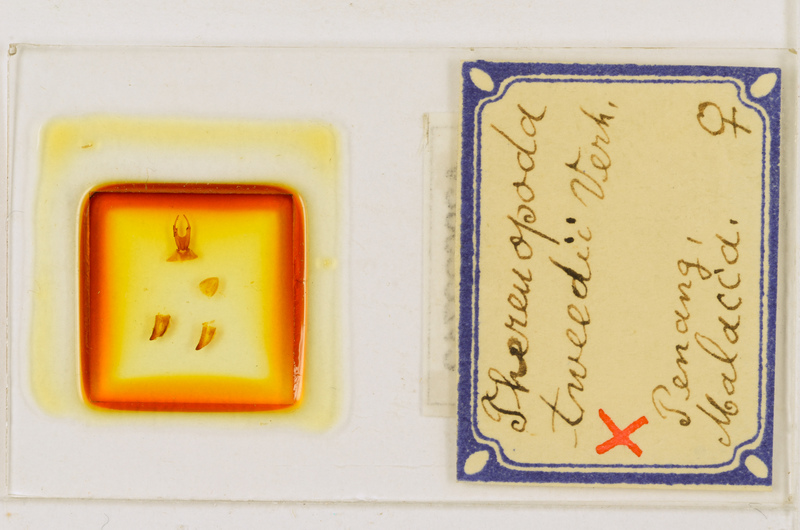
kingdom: Animalia
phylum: Arthropoda
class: Chilopoda
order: Scutigeromorpha
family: Scutigeridae
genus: Thereuopoda
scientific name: Thereuopoda longicornis
